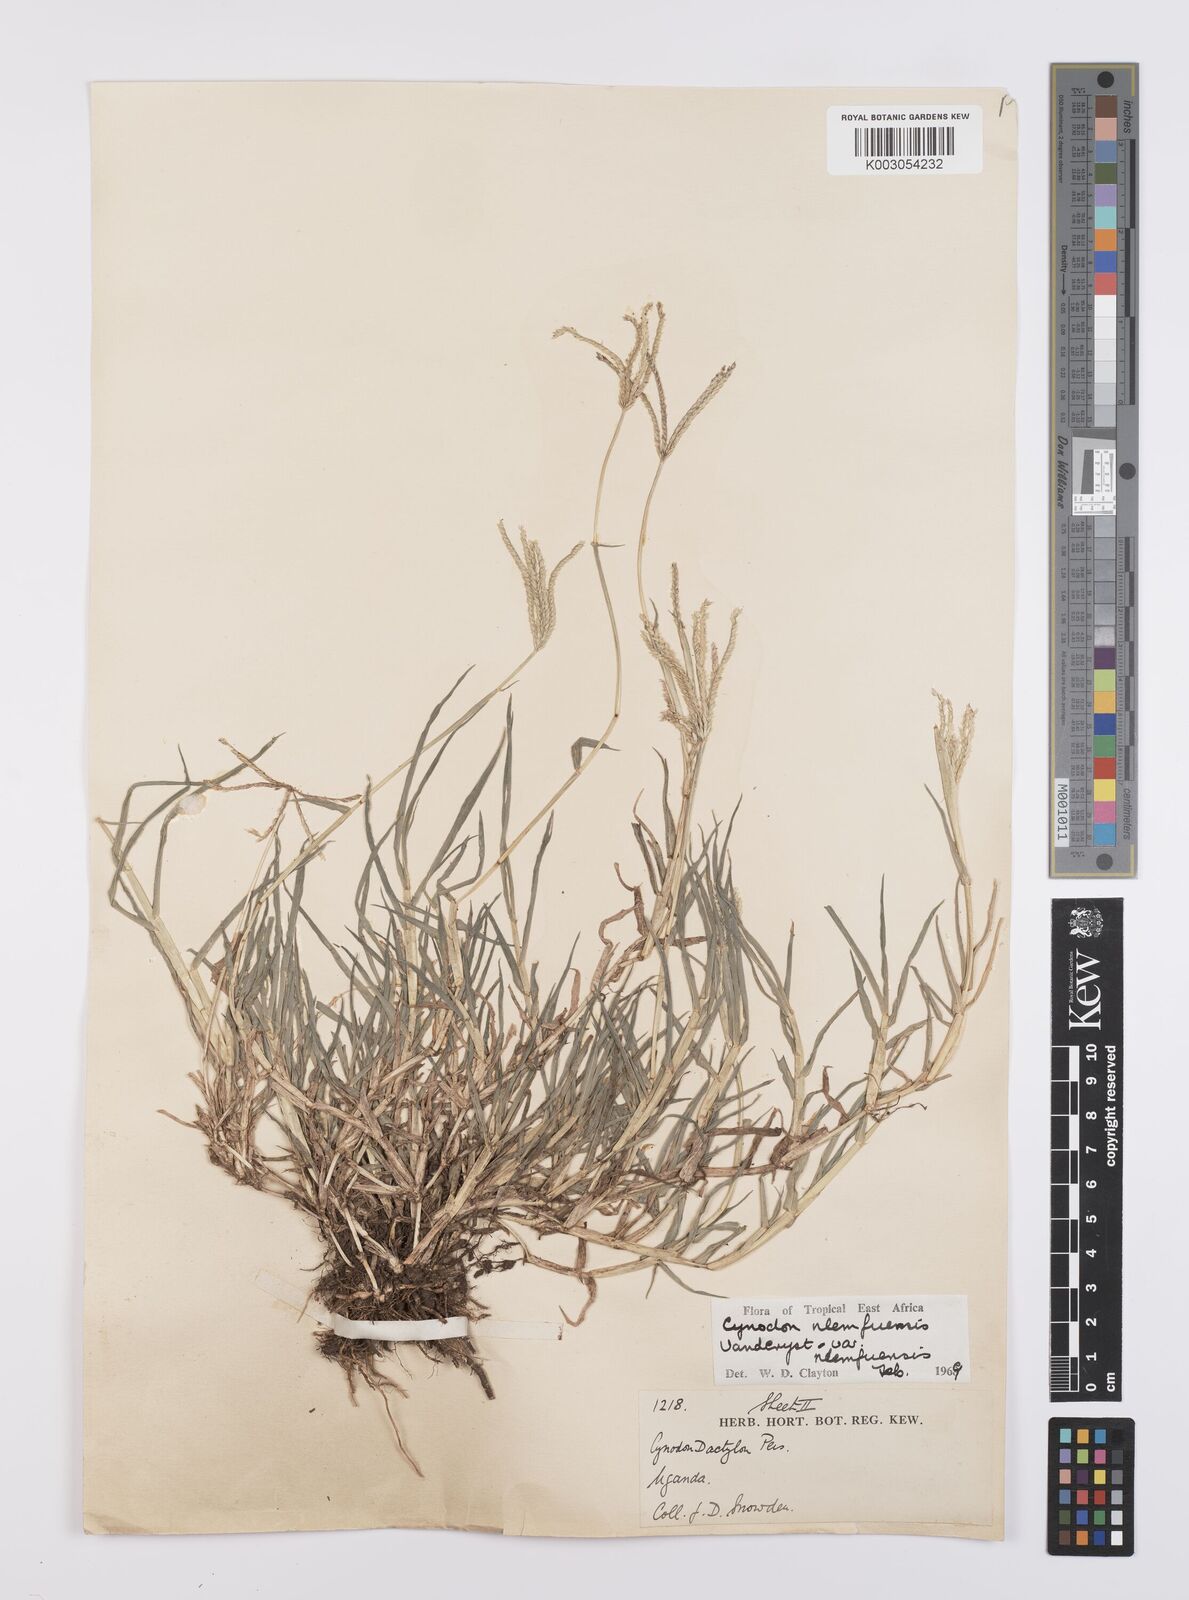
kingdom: Plantae
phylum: Tracheophyta
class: Liliopsida
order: Poales
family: Poaceae
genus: Cynodon
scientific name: Cynodon nlemfuensis
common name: African bermudagrass
